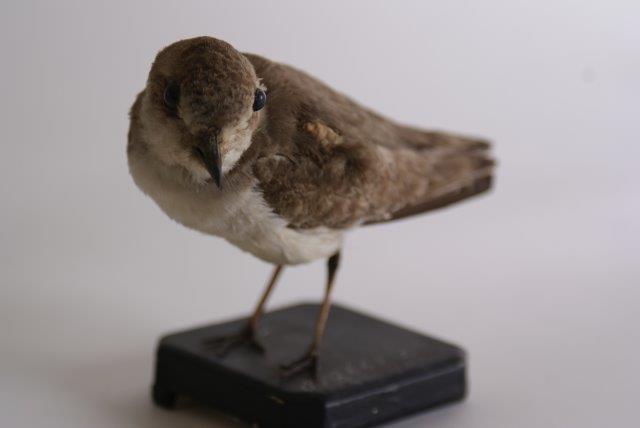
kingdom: Animalia
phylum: Chordata
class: Aves
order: Charadriiformes
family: Charadriidae
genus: Charadrius
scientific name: Charadrius alexandrinus
